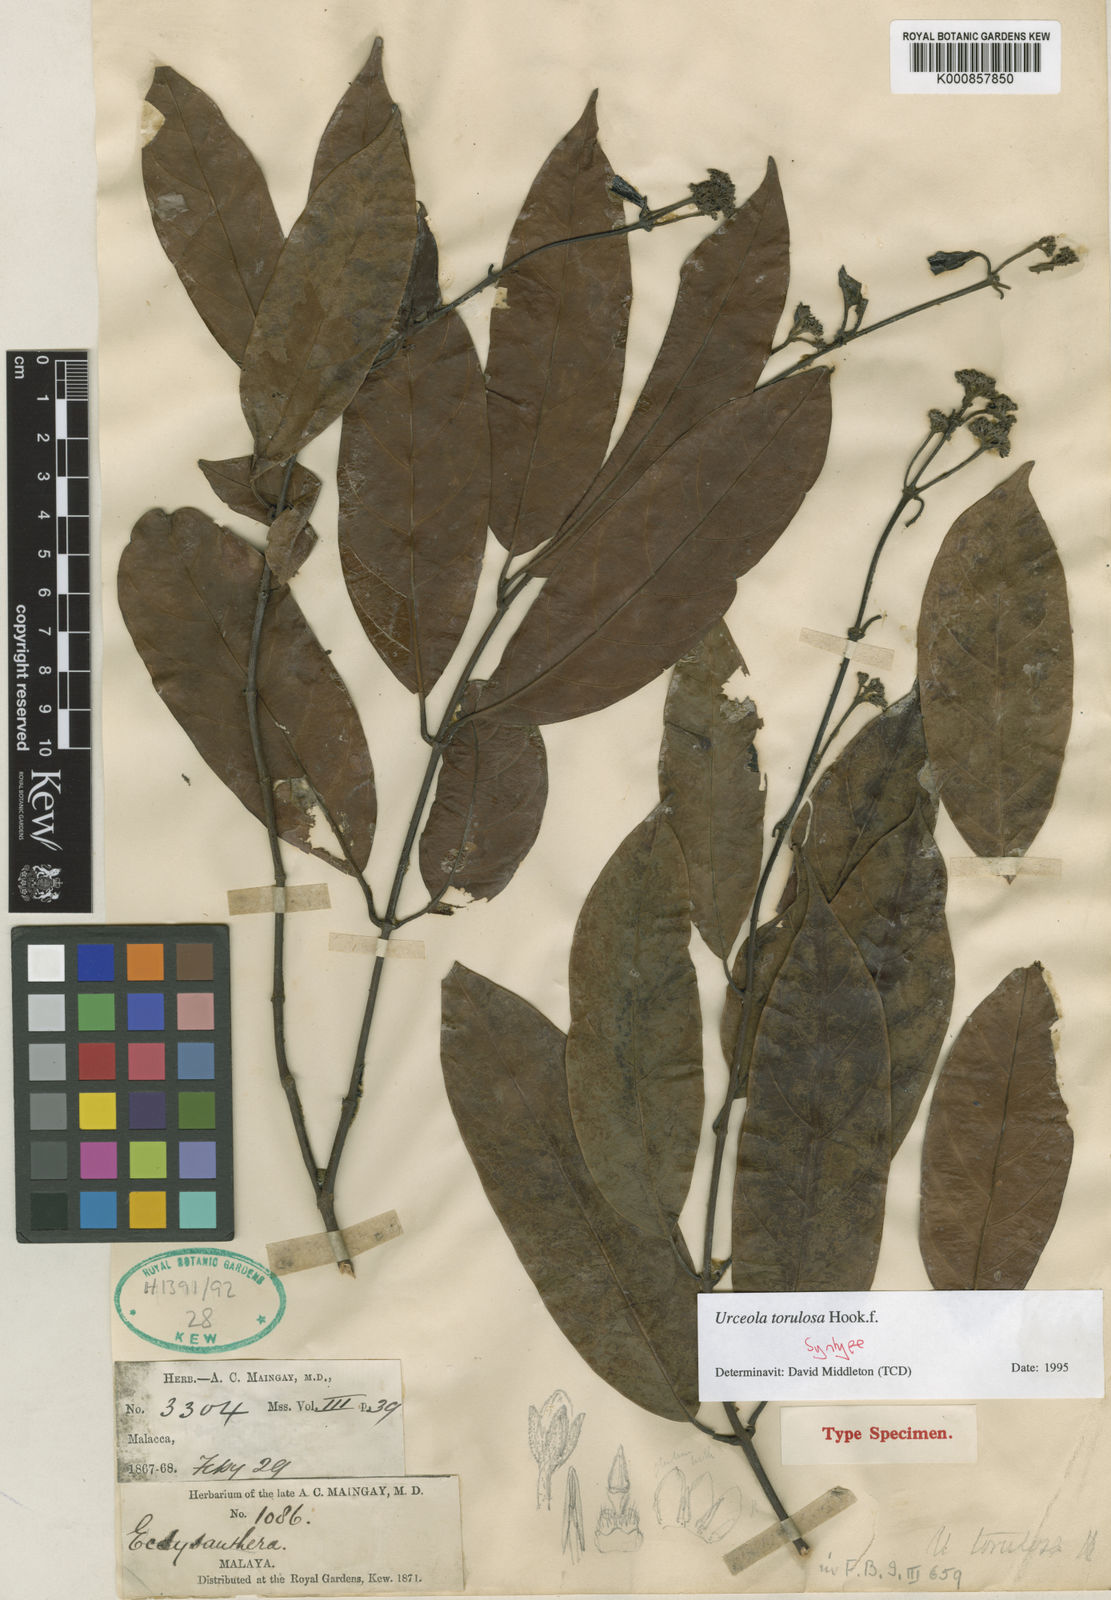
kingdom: Plantae
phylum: Tracheophyta
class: Magnoliopsida
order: Gentianales
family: Apocynaceae
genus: Urceola
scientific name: Urceola torulosa
